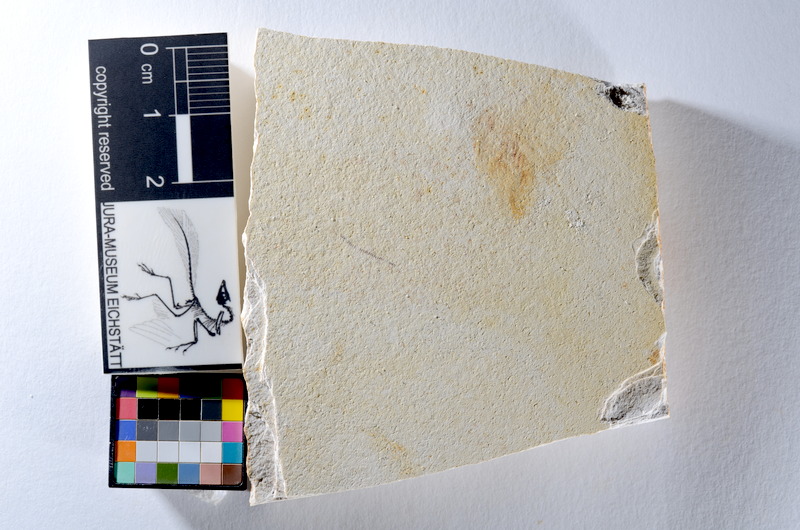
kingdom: Animalia
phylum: Chordata
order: Salmoniformes
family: Orthogonikleithridae
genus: Orthogonikleithrus
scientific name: Orthogonikleithrus hoelli
